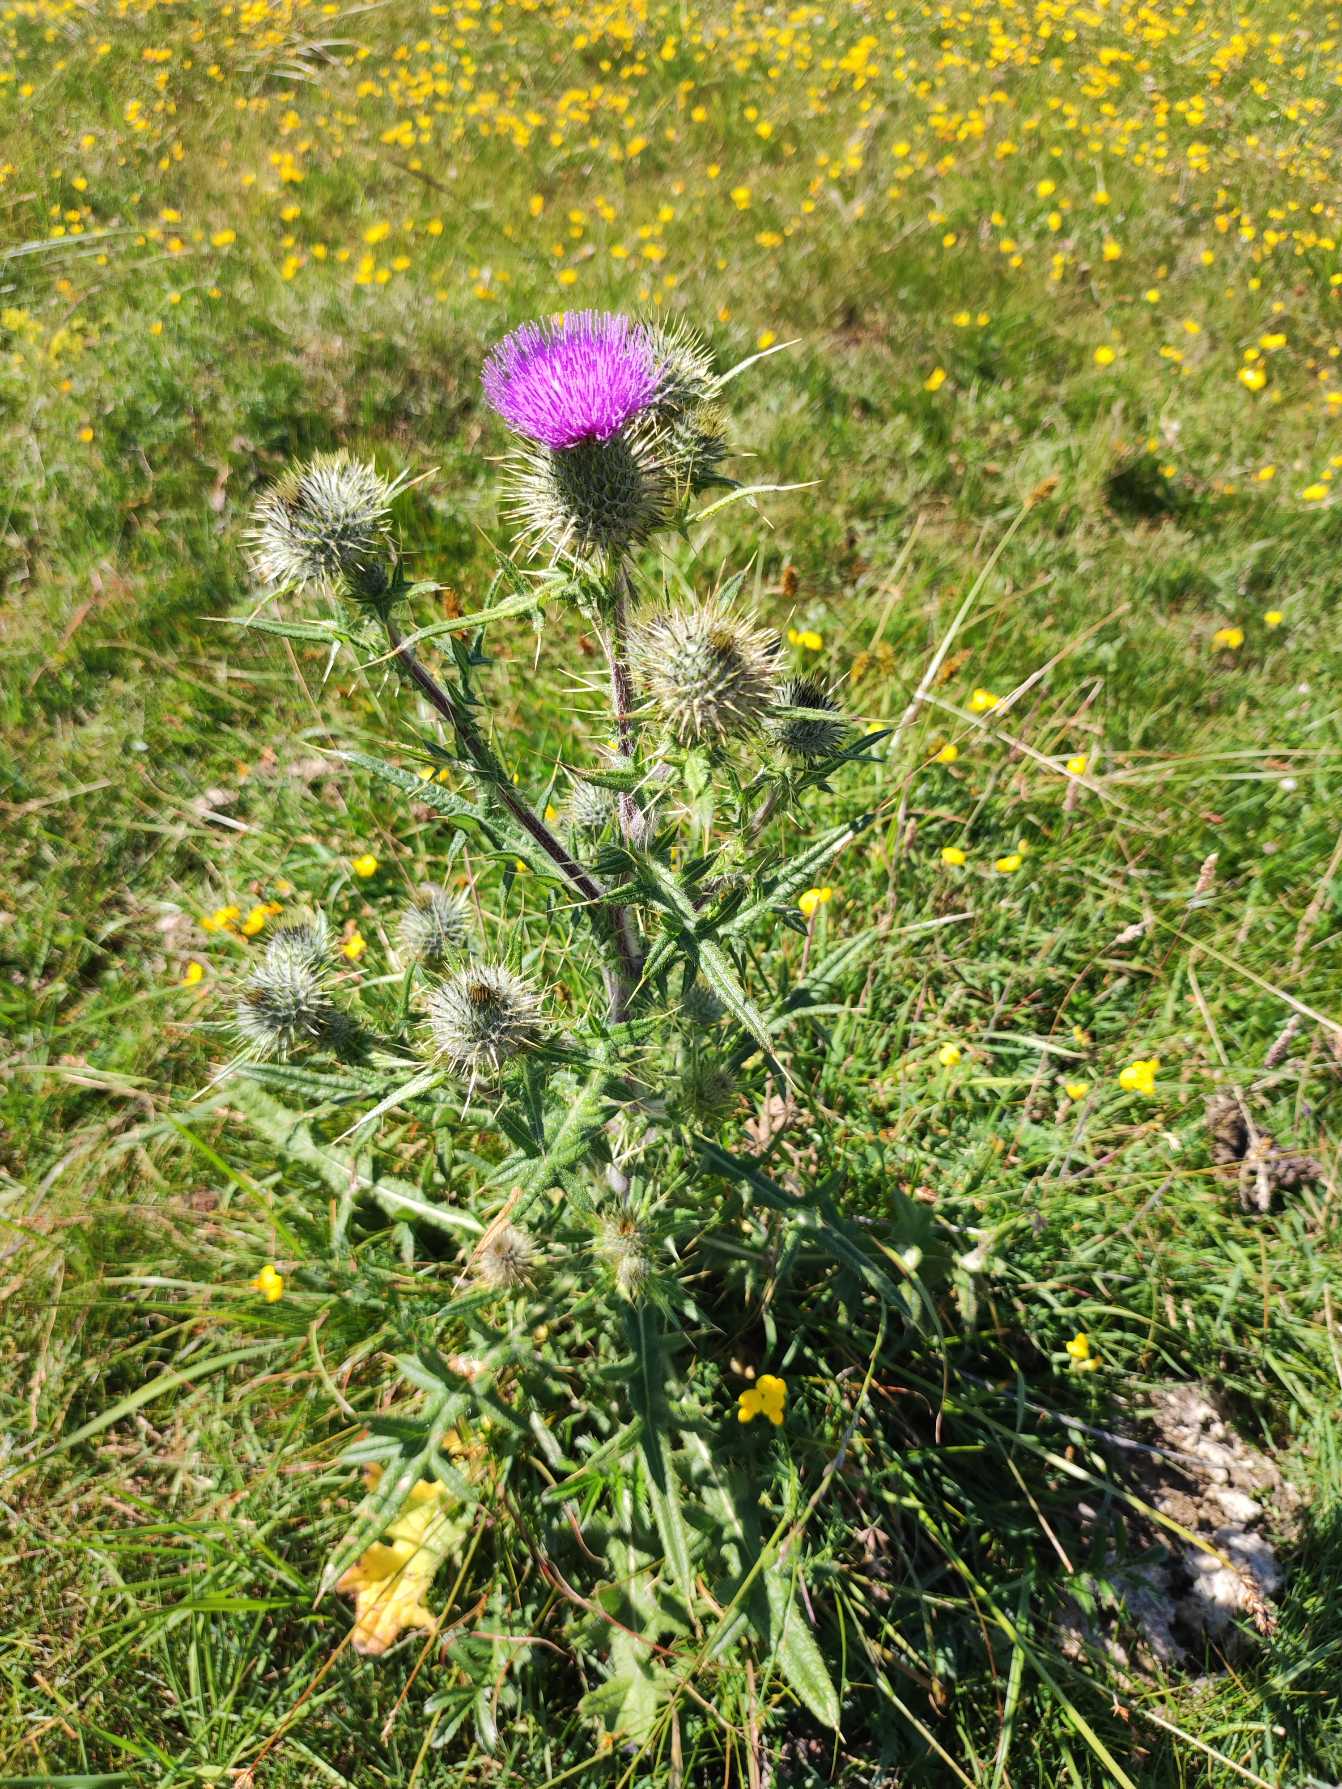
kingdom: Plantae
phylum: Tracheophyta
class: Magnoliopsida
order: Asterales
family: Asteraceae
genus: Cirsium
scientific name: Cirsium vulgare
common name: Horse-tidsel
